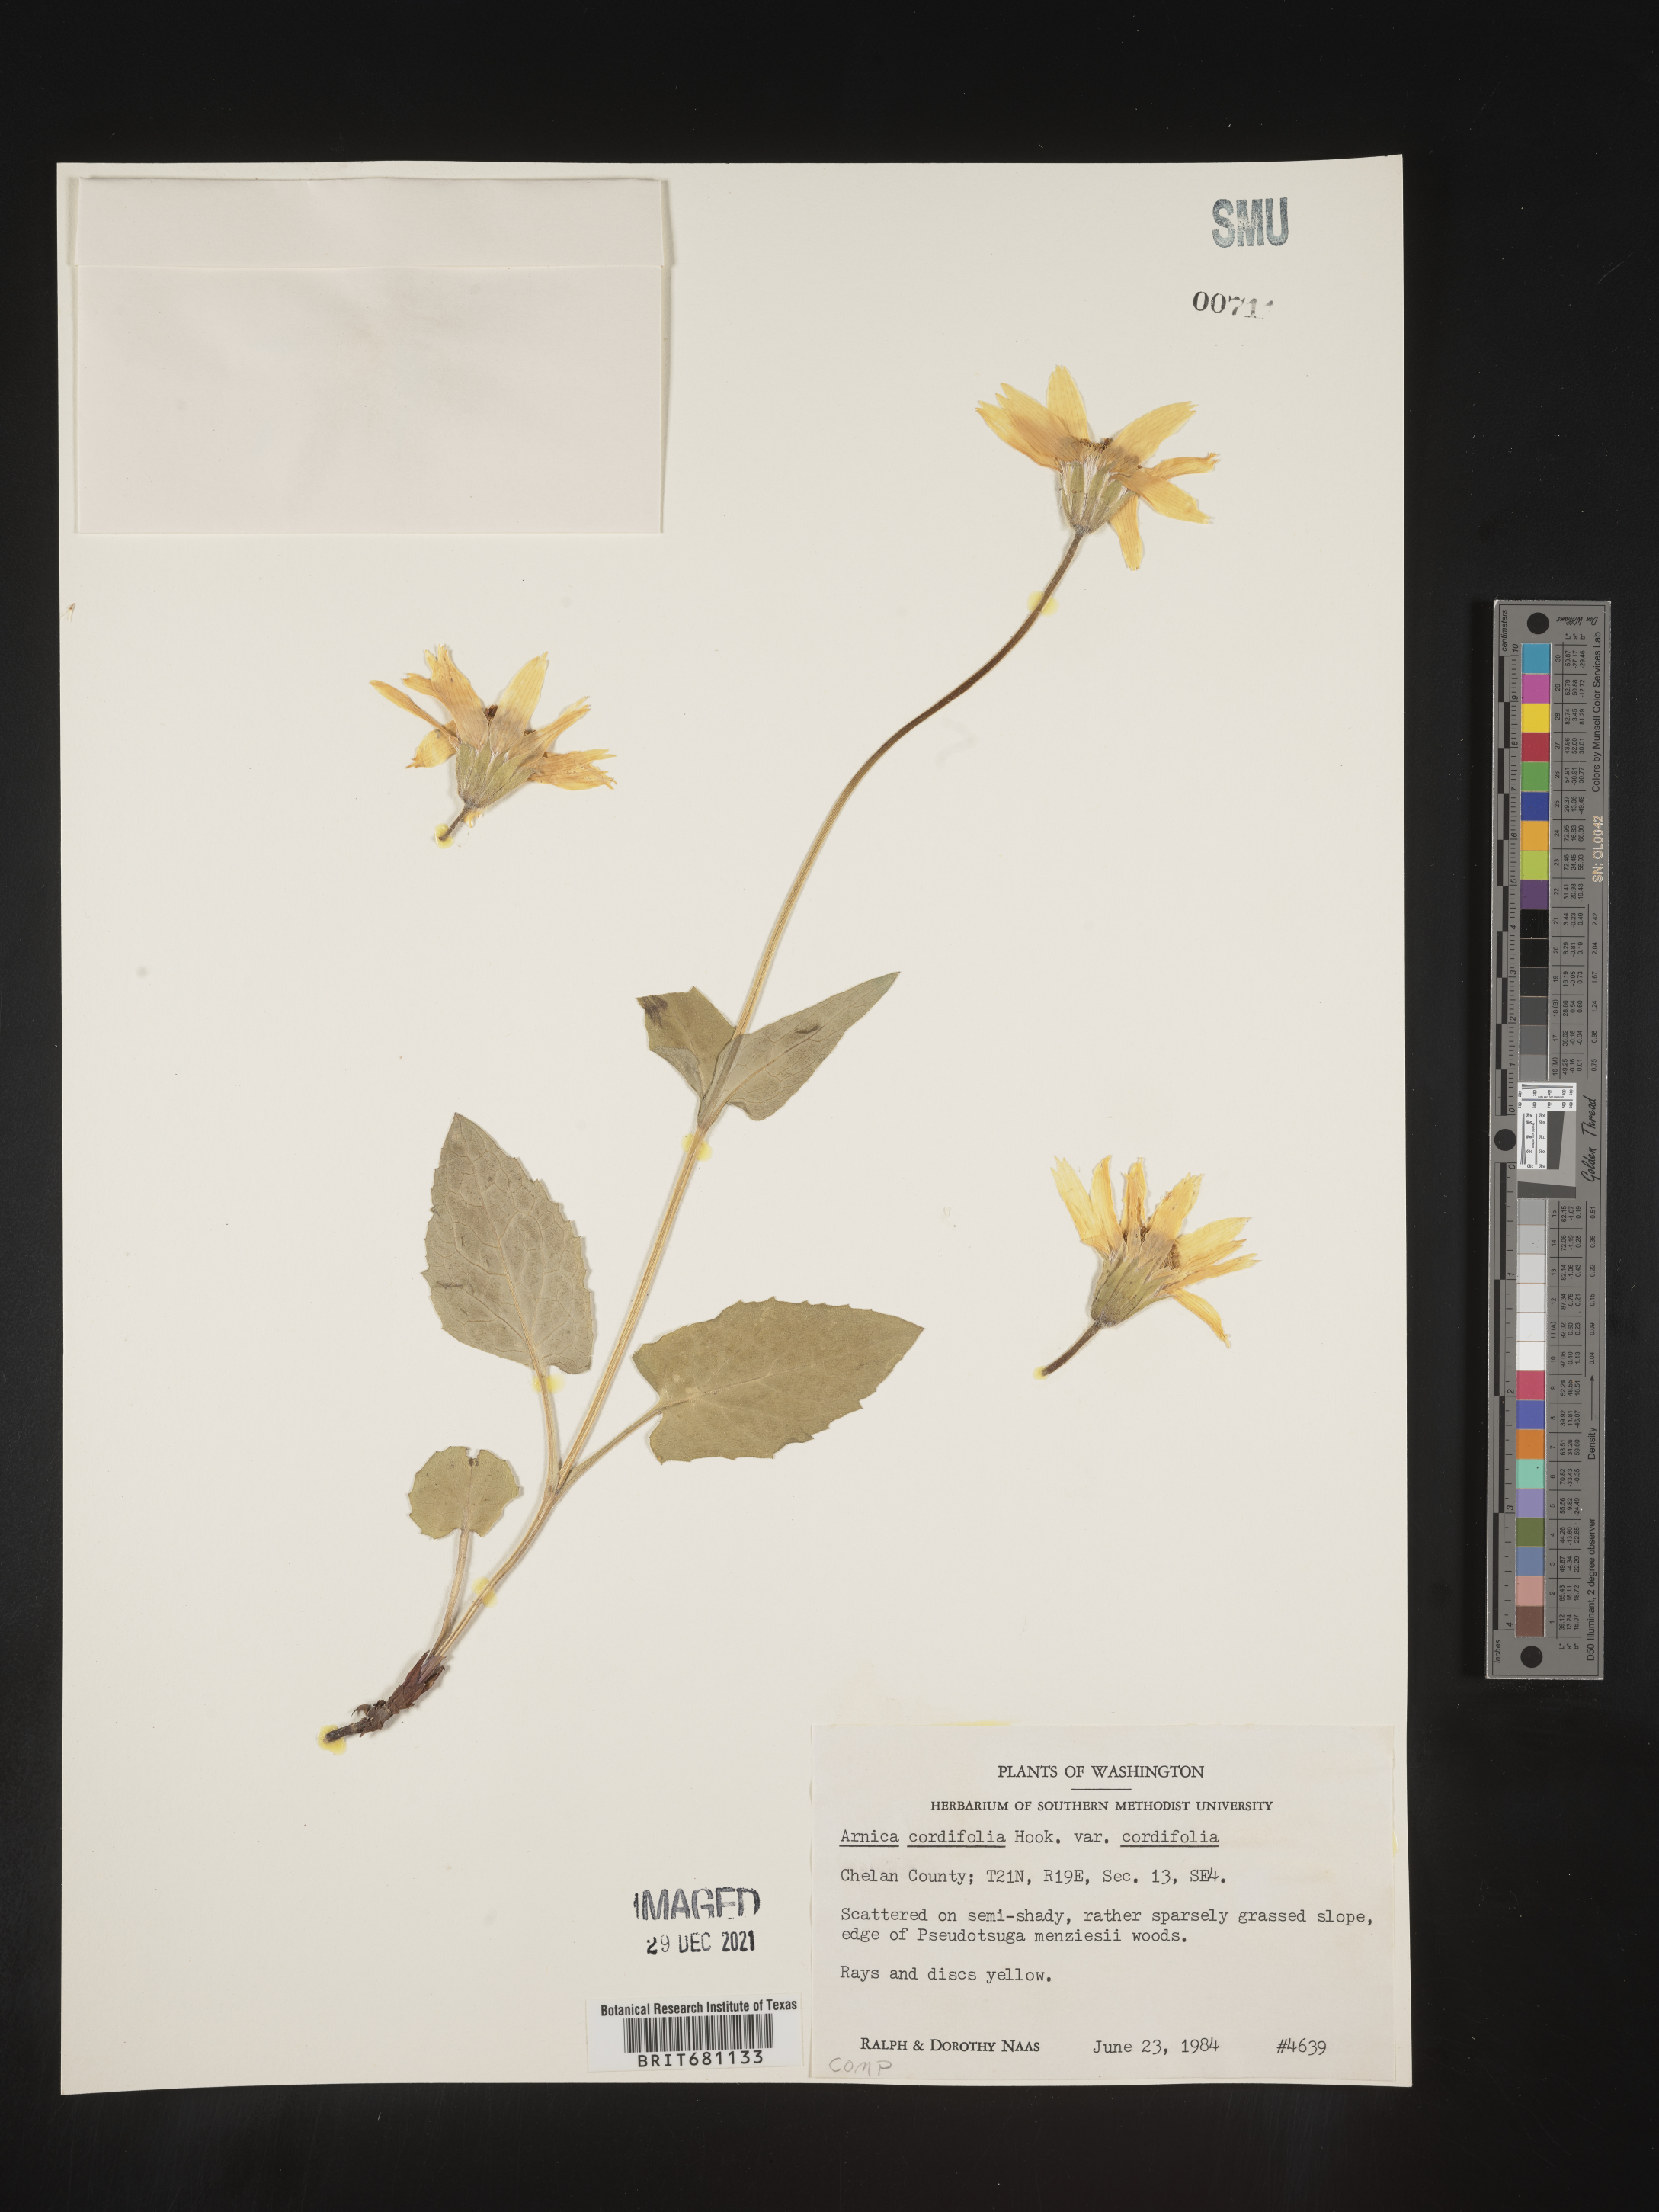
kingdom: Plantae
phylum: Tracheophyta
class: Magnoliopsida
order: Asterales
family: Asteraceae
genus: Arnica
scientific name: Arnica cordifolia
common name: Heart-leaf arnica
